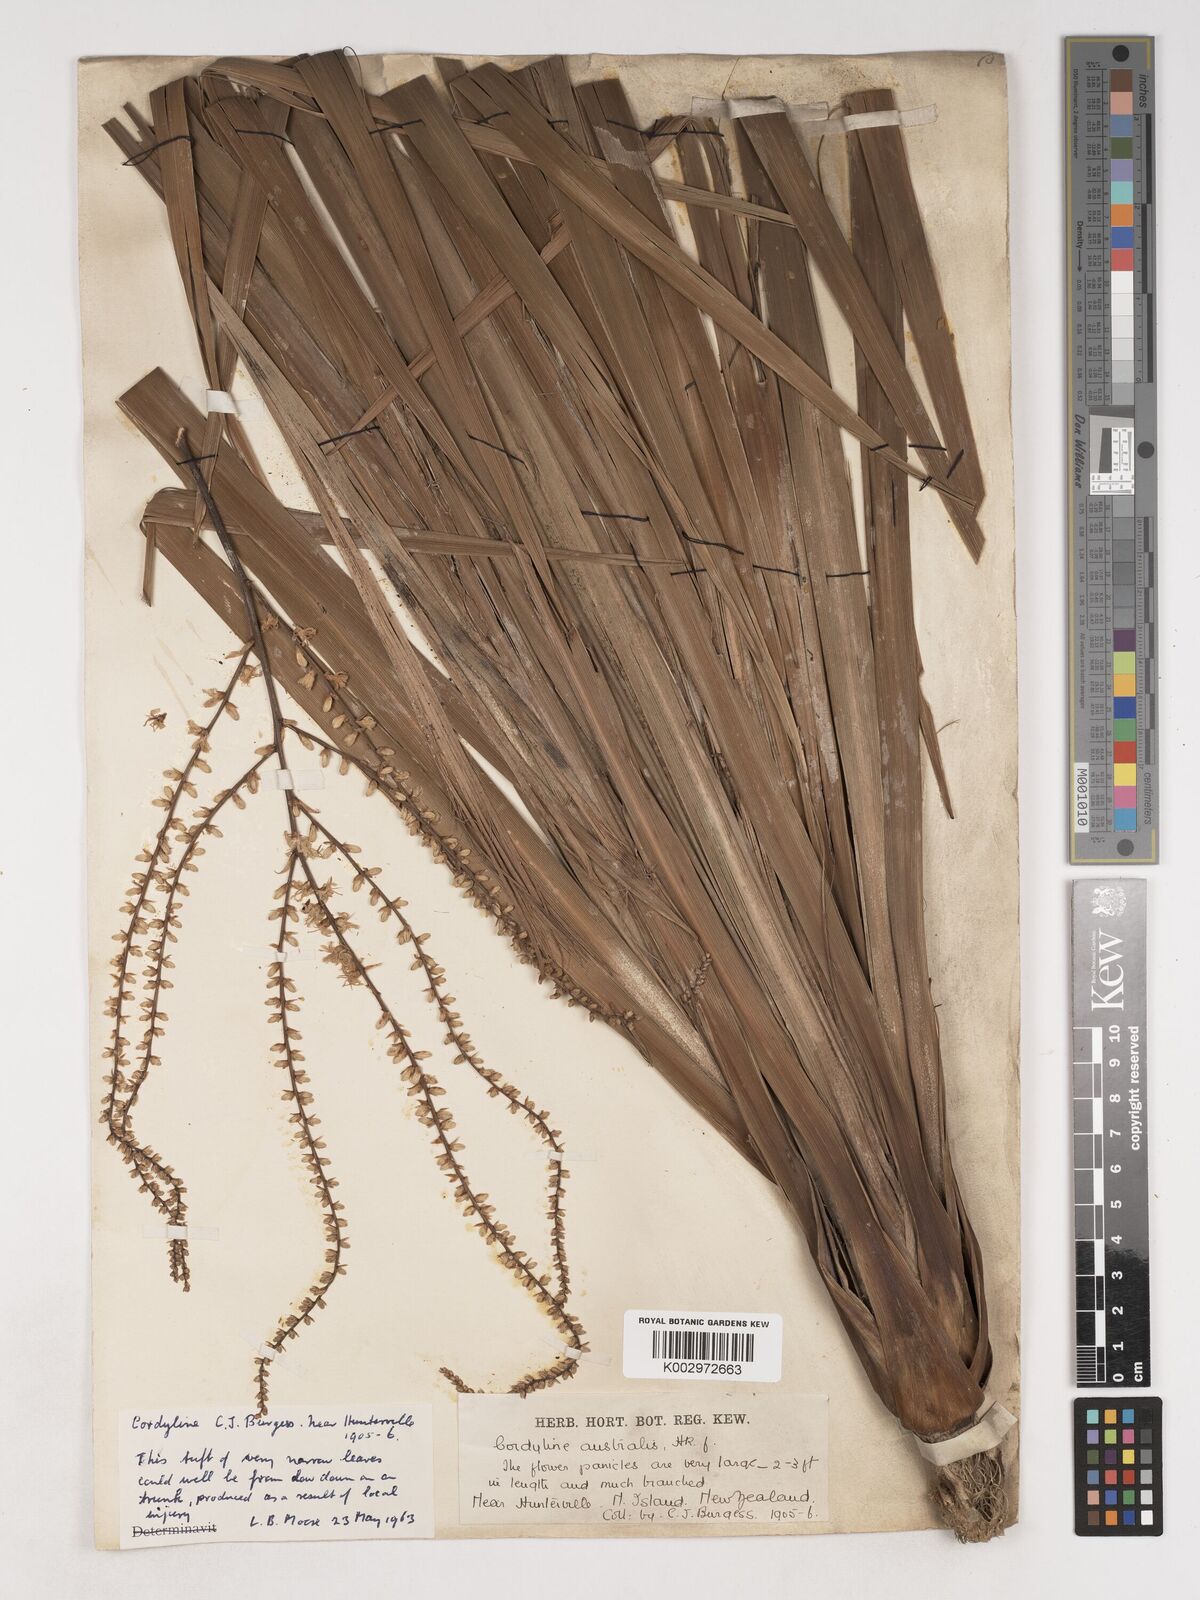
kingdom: Plantae
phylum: Tracheophyta
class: Liliopsida
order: Asparagales
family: Asparagaceae
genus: Cordyline
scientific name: Cordyline australis
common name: Cabbage-palm
